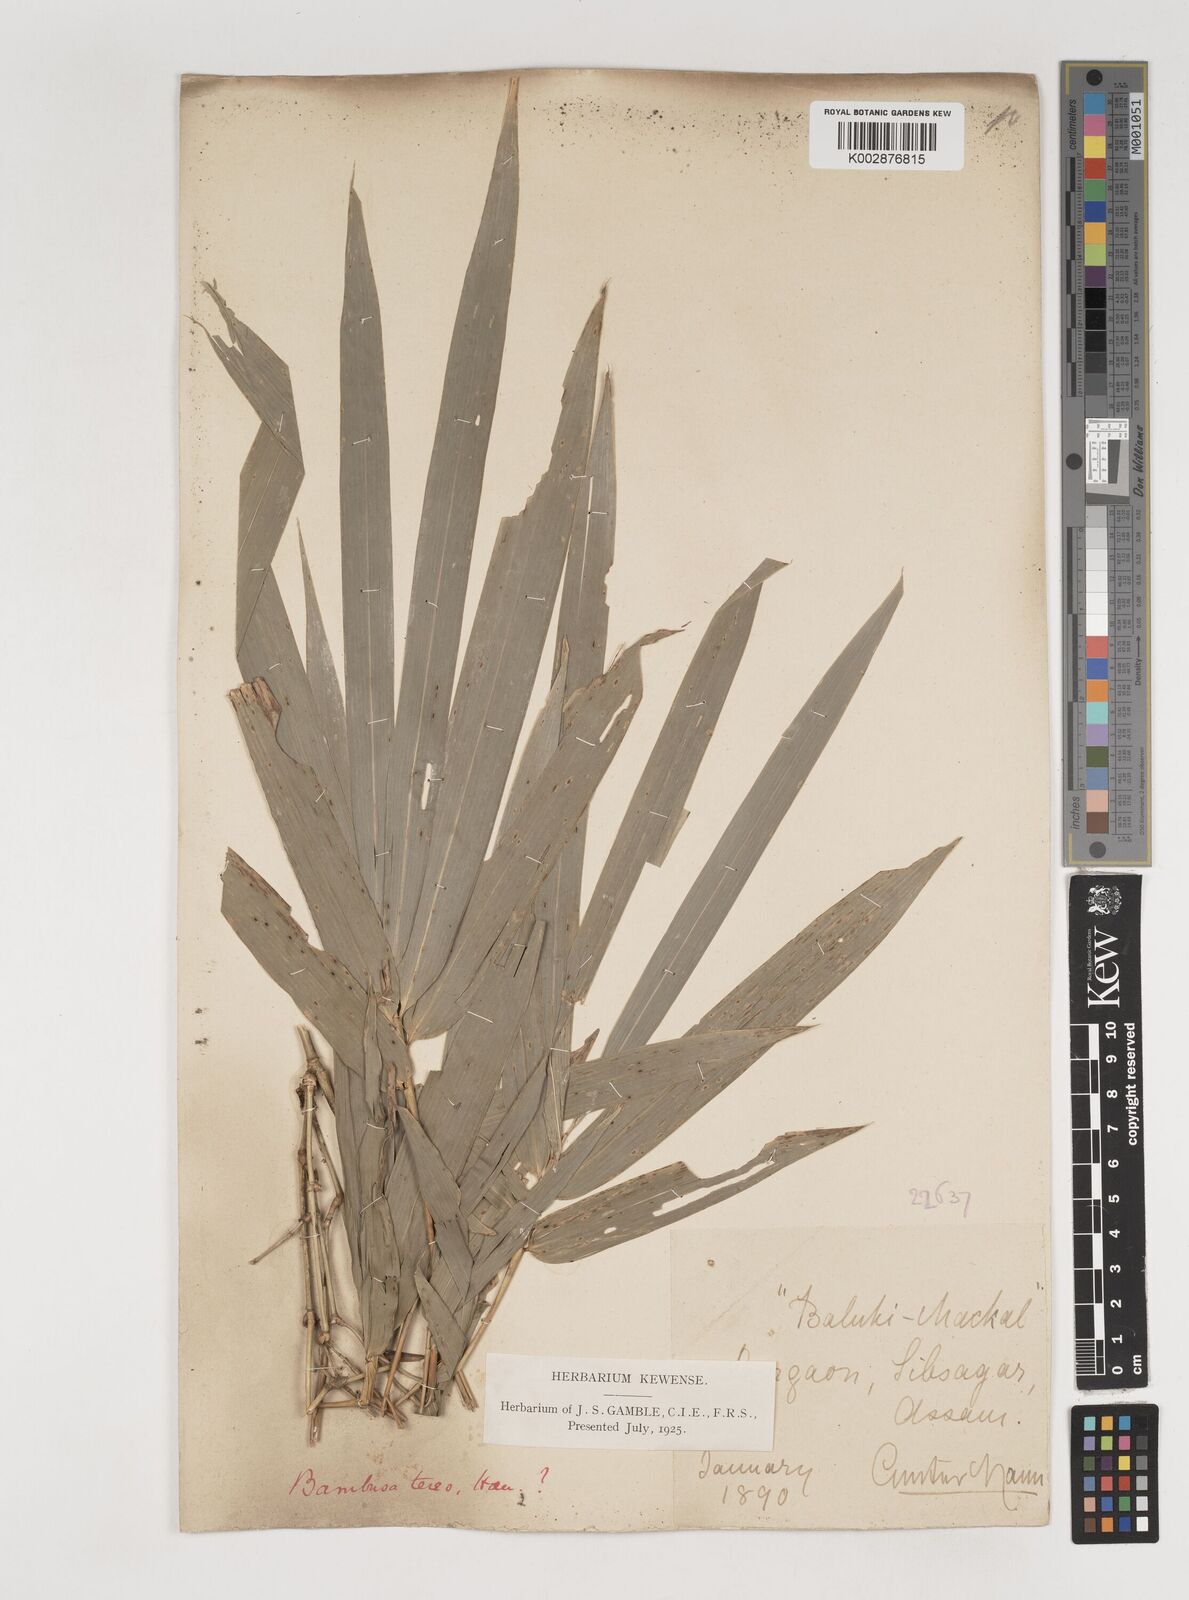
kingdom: Plantae
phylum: Tracheophyta
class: Liliopsida
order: Poales
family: Poaceae
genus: Bambusa
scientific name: Bambusa teres
